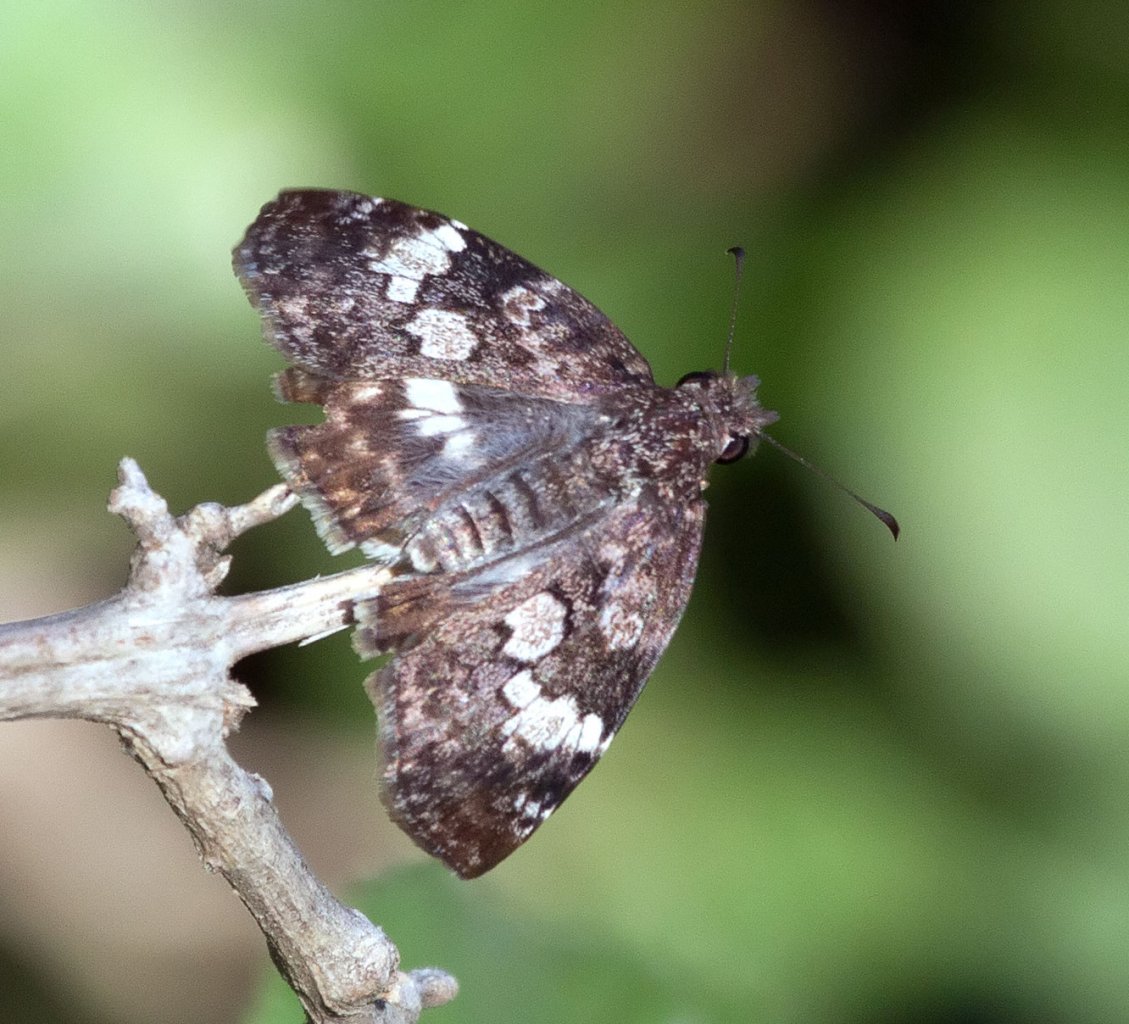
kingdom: Animalia
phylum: Arthropoda
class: Insecta
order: Lepidoptera
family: Hesperiidae
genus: Chiomara
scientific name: Chiomara asychis
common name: White-patched Skipper
